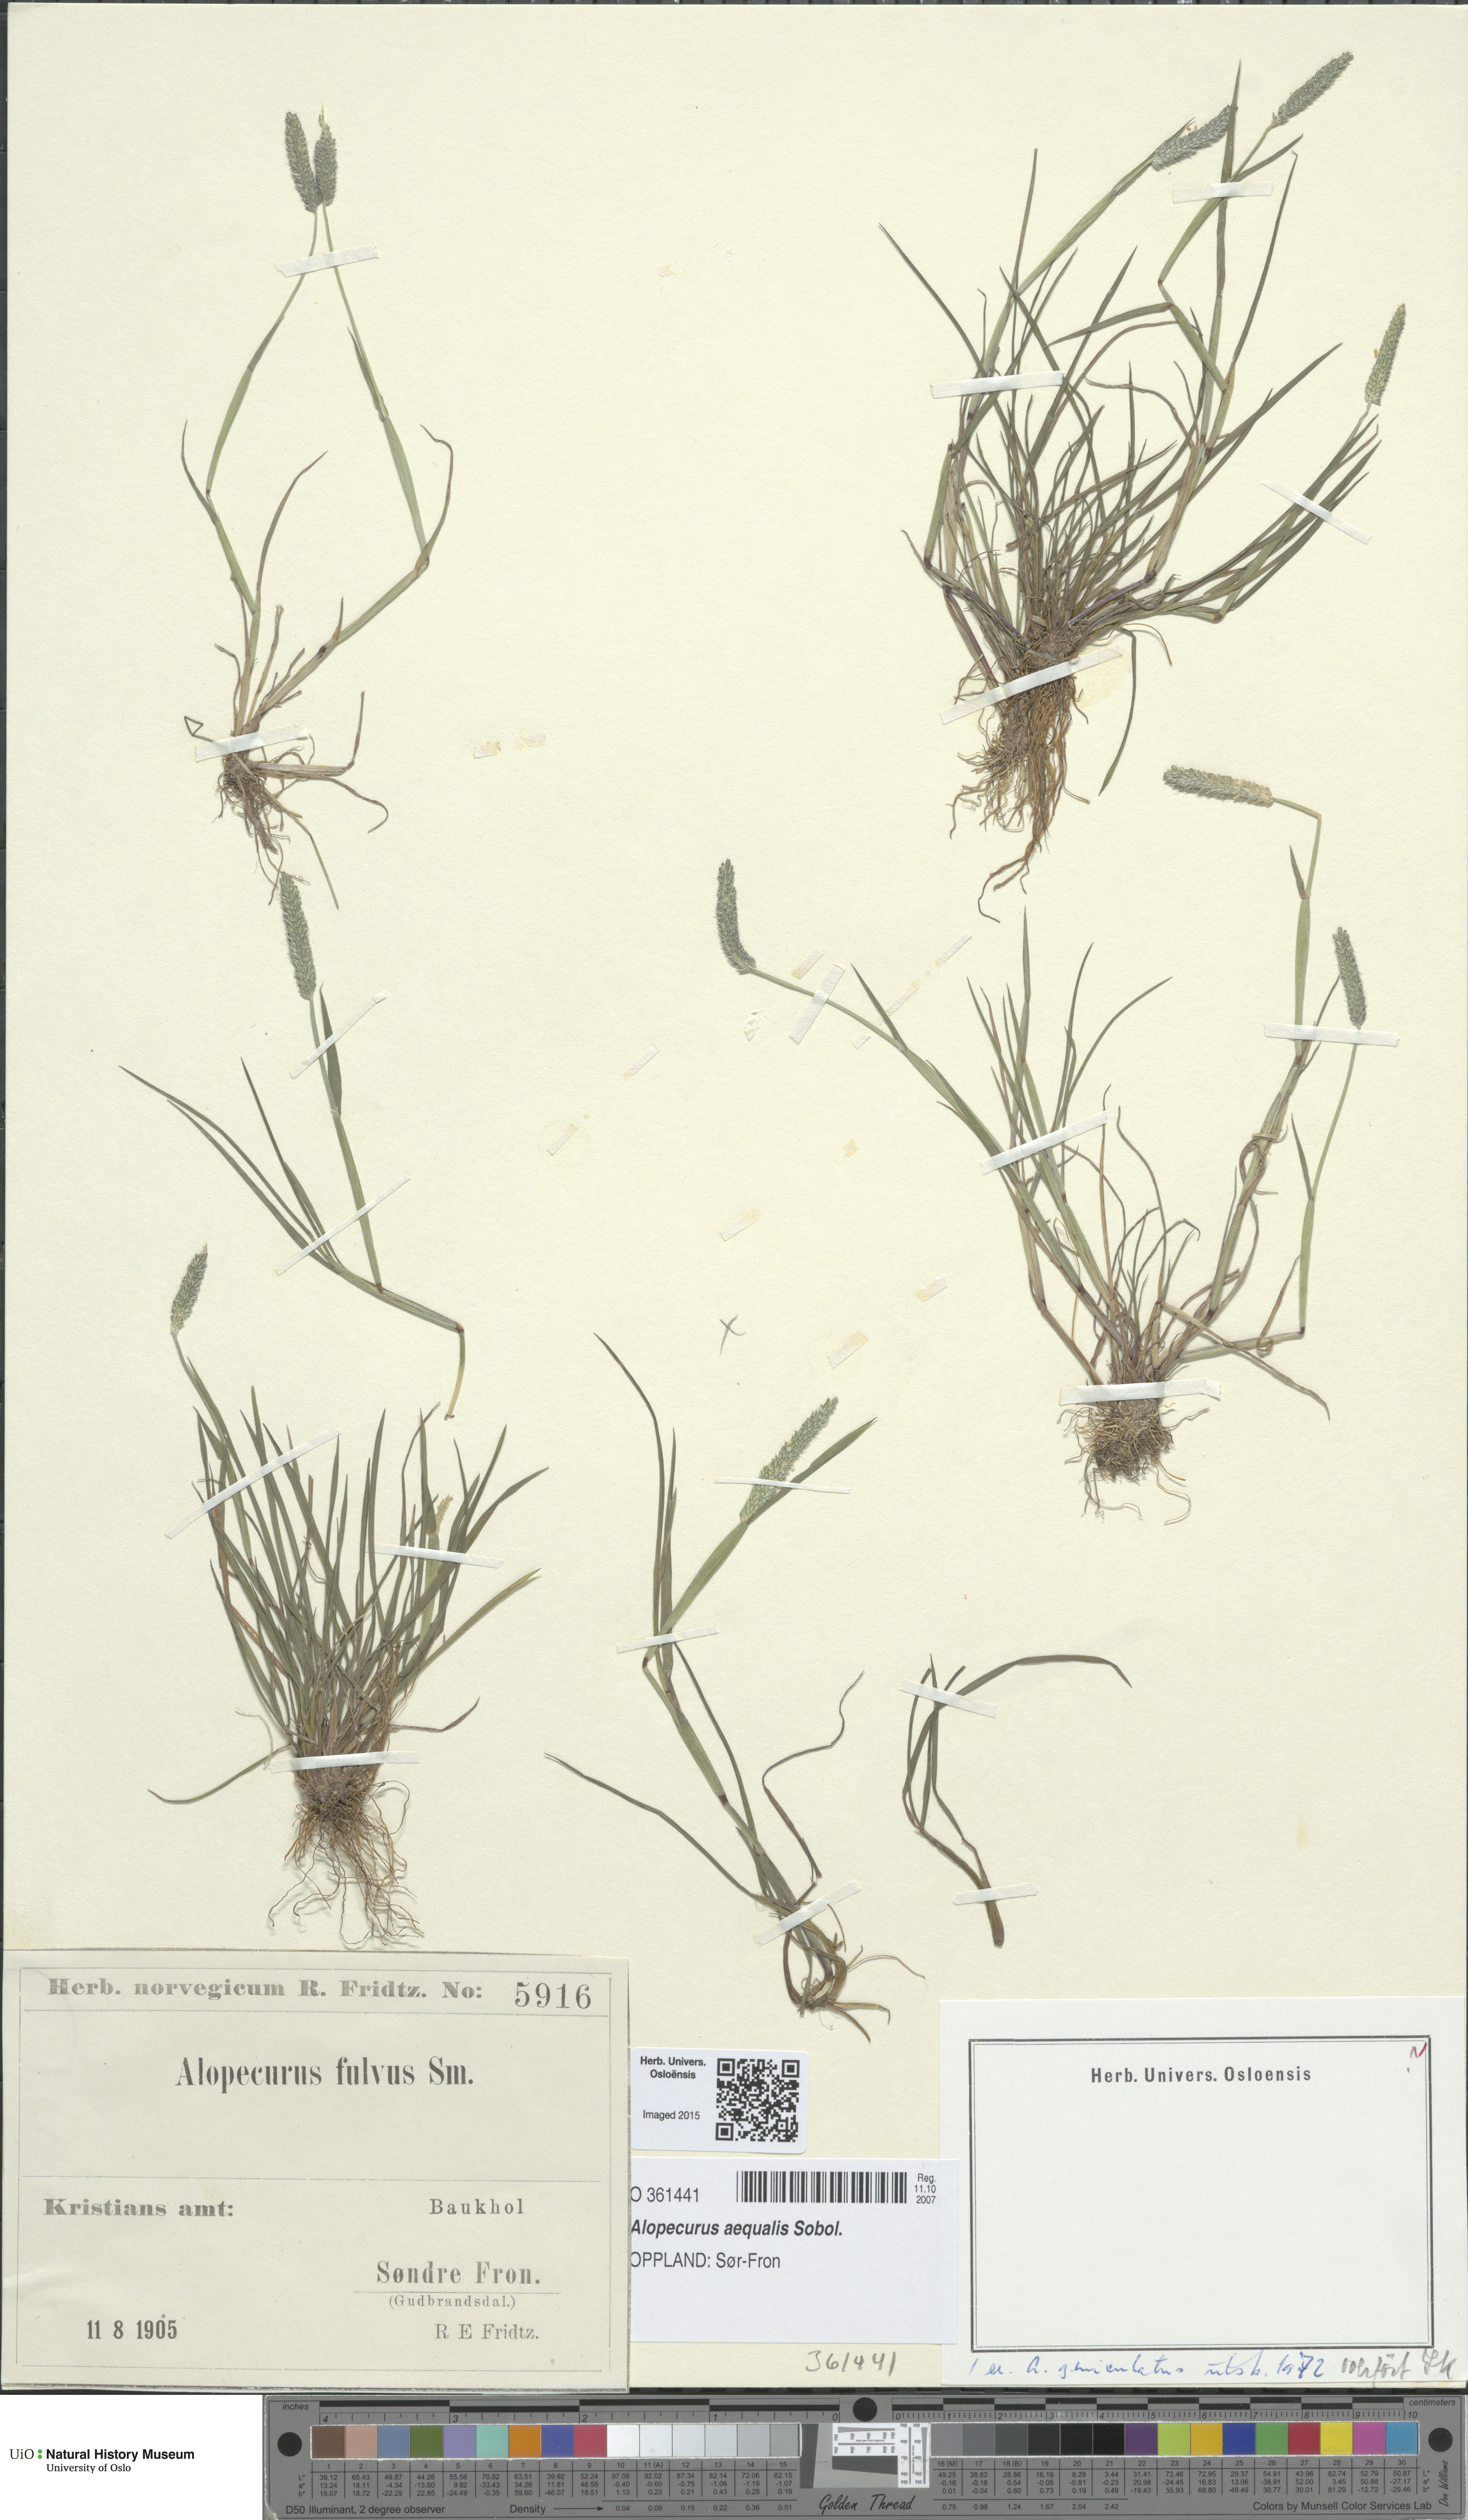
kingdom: Plantae
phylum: Tracheophyta
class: Liliopsida
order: Poales
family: Poaceae
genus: Alopecurus
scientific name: Alopecurus aequalis
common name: Orange foxtail
